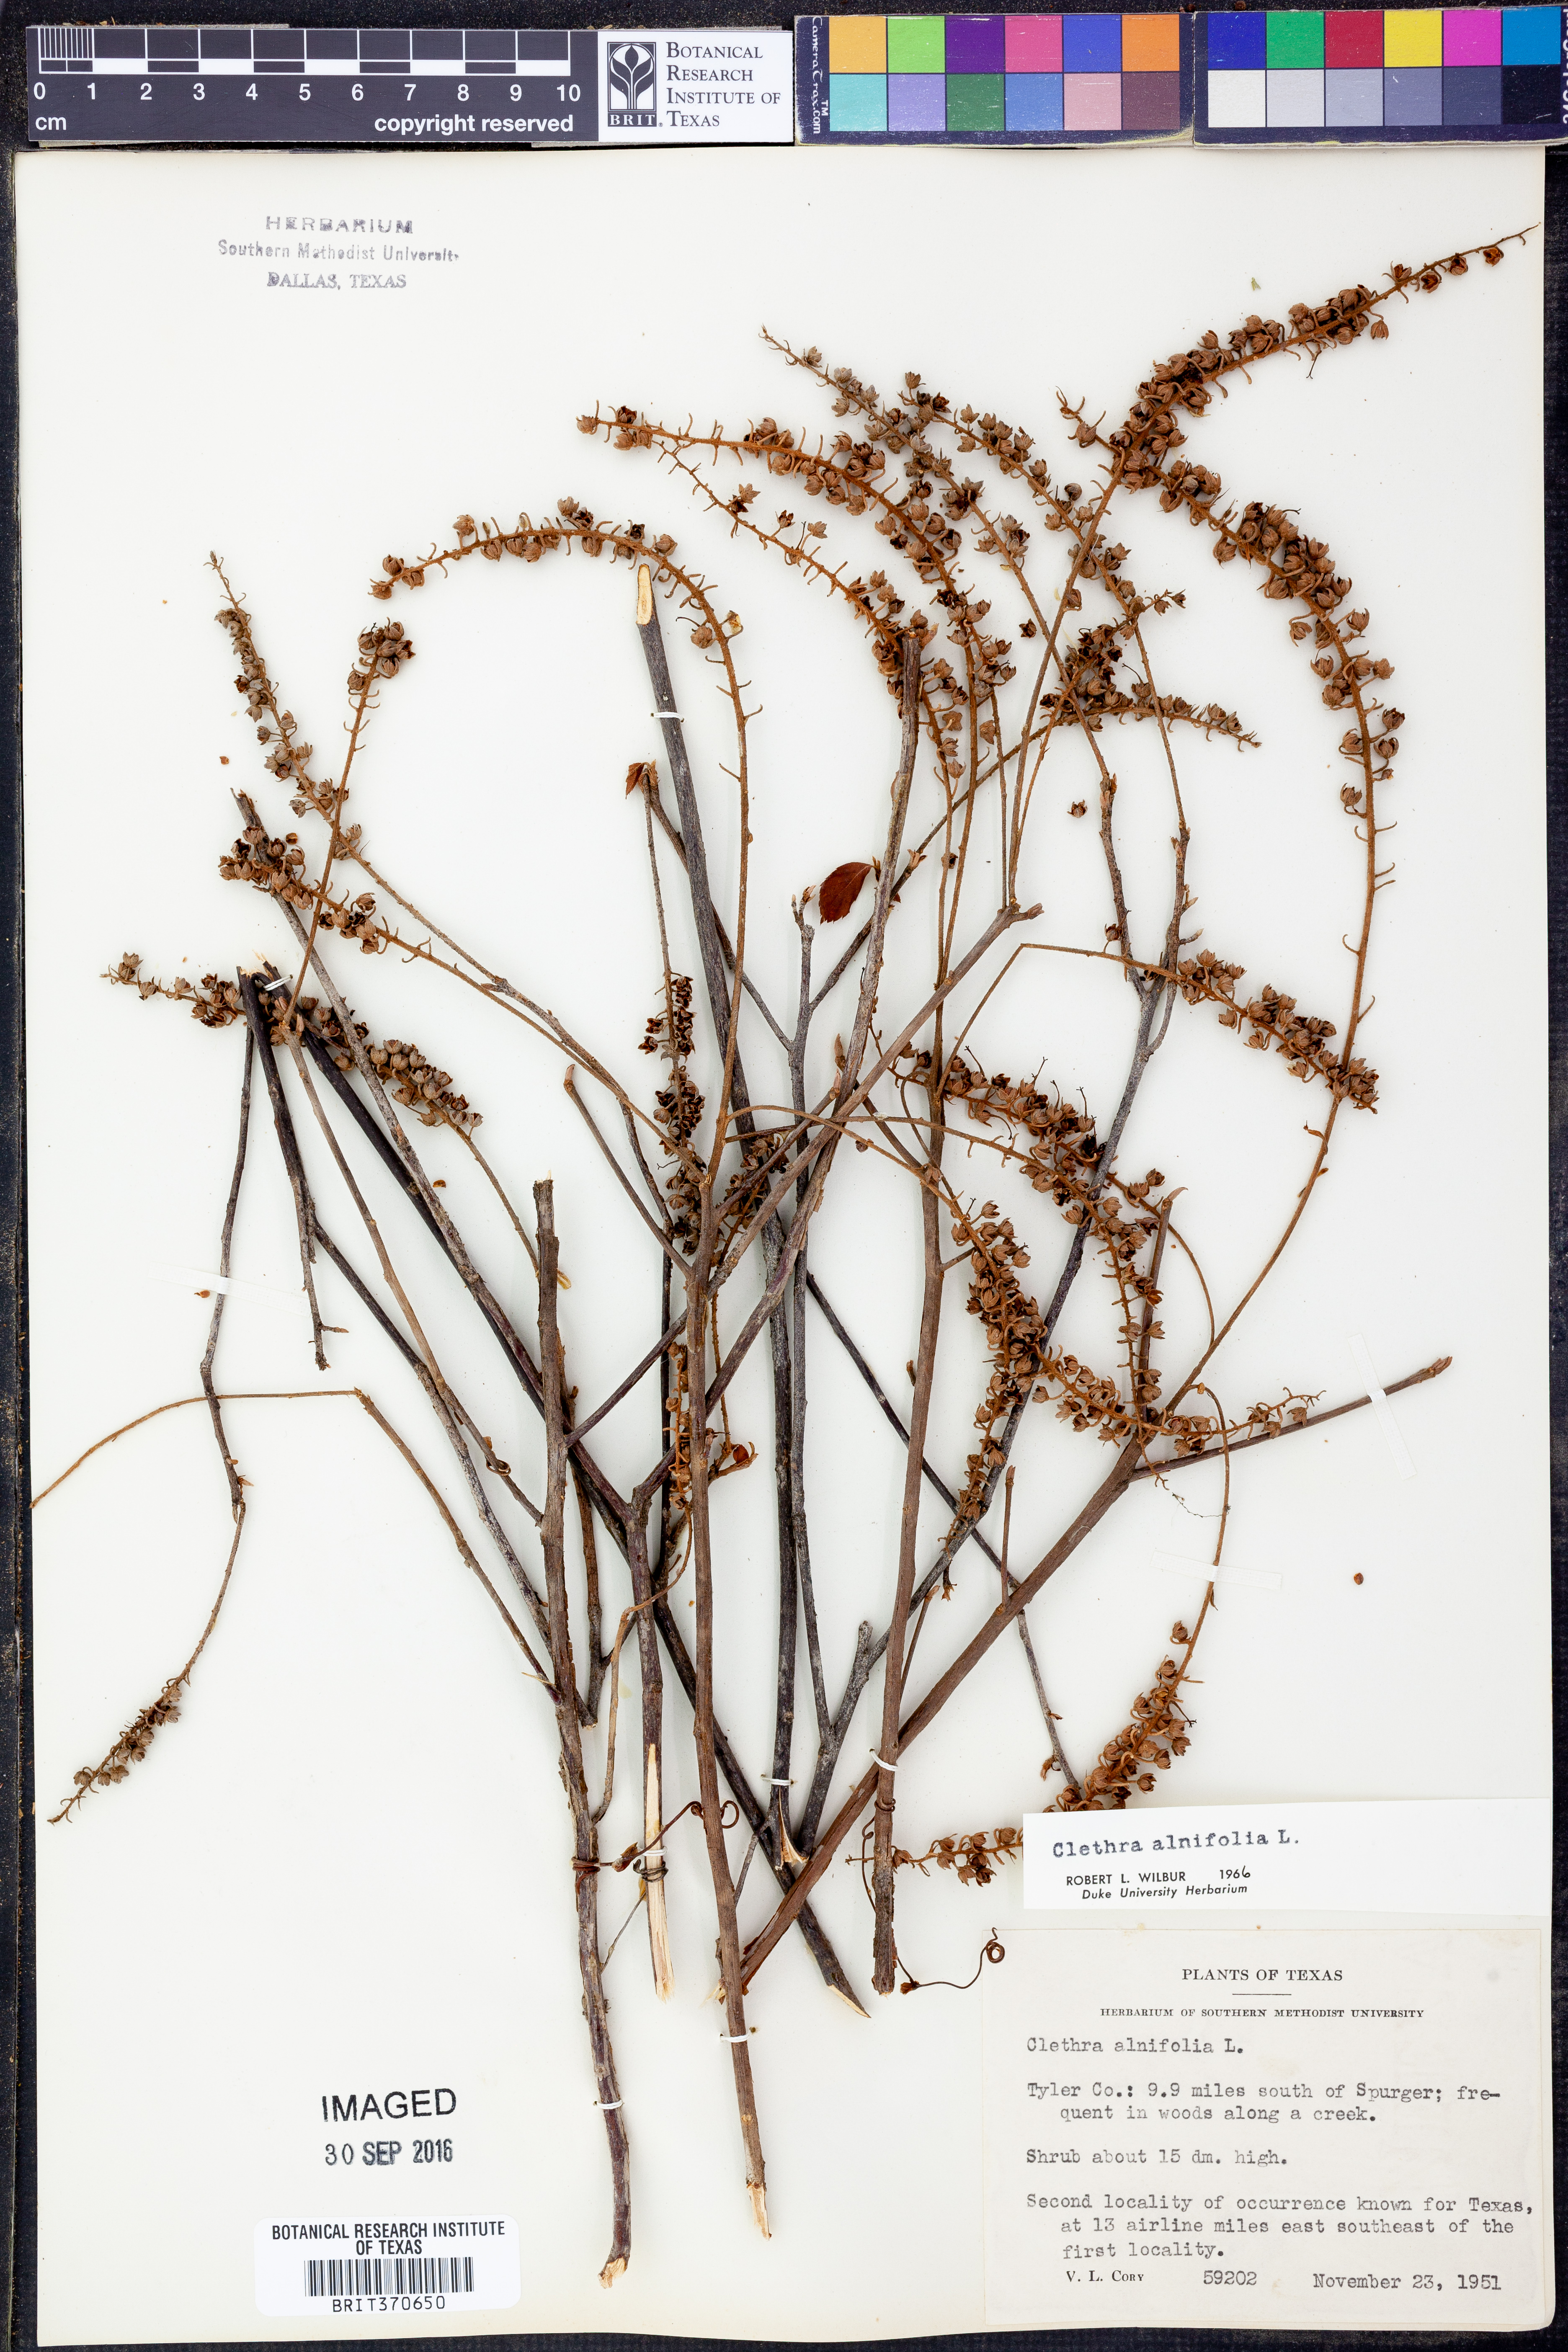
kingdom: Plantae
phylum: Tracheophyta
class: Magnoliopsida
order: Ericales
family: Clethraceae
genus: Clethra
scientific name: Clethra alnifolia
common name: Sweet pepperbush
